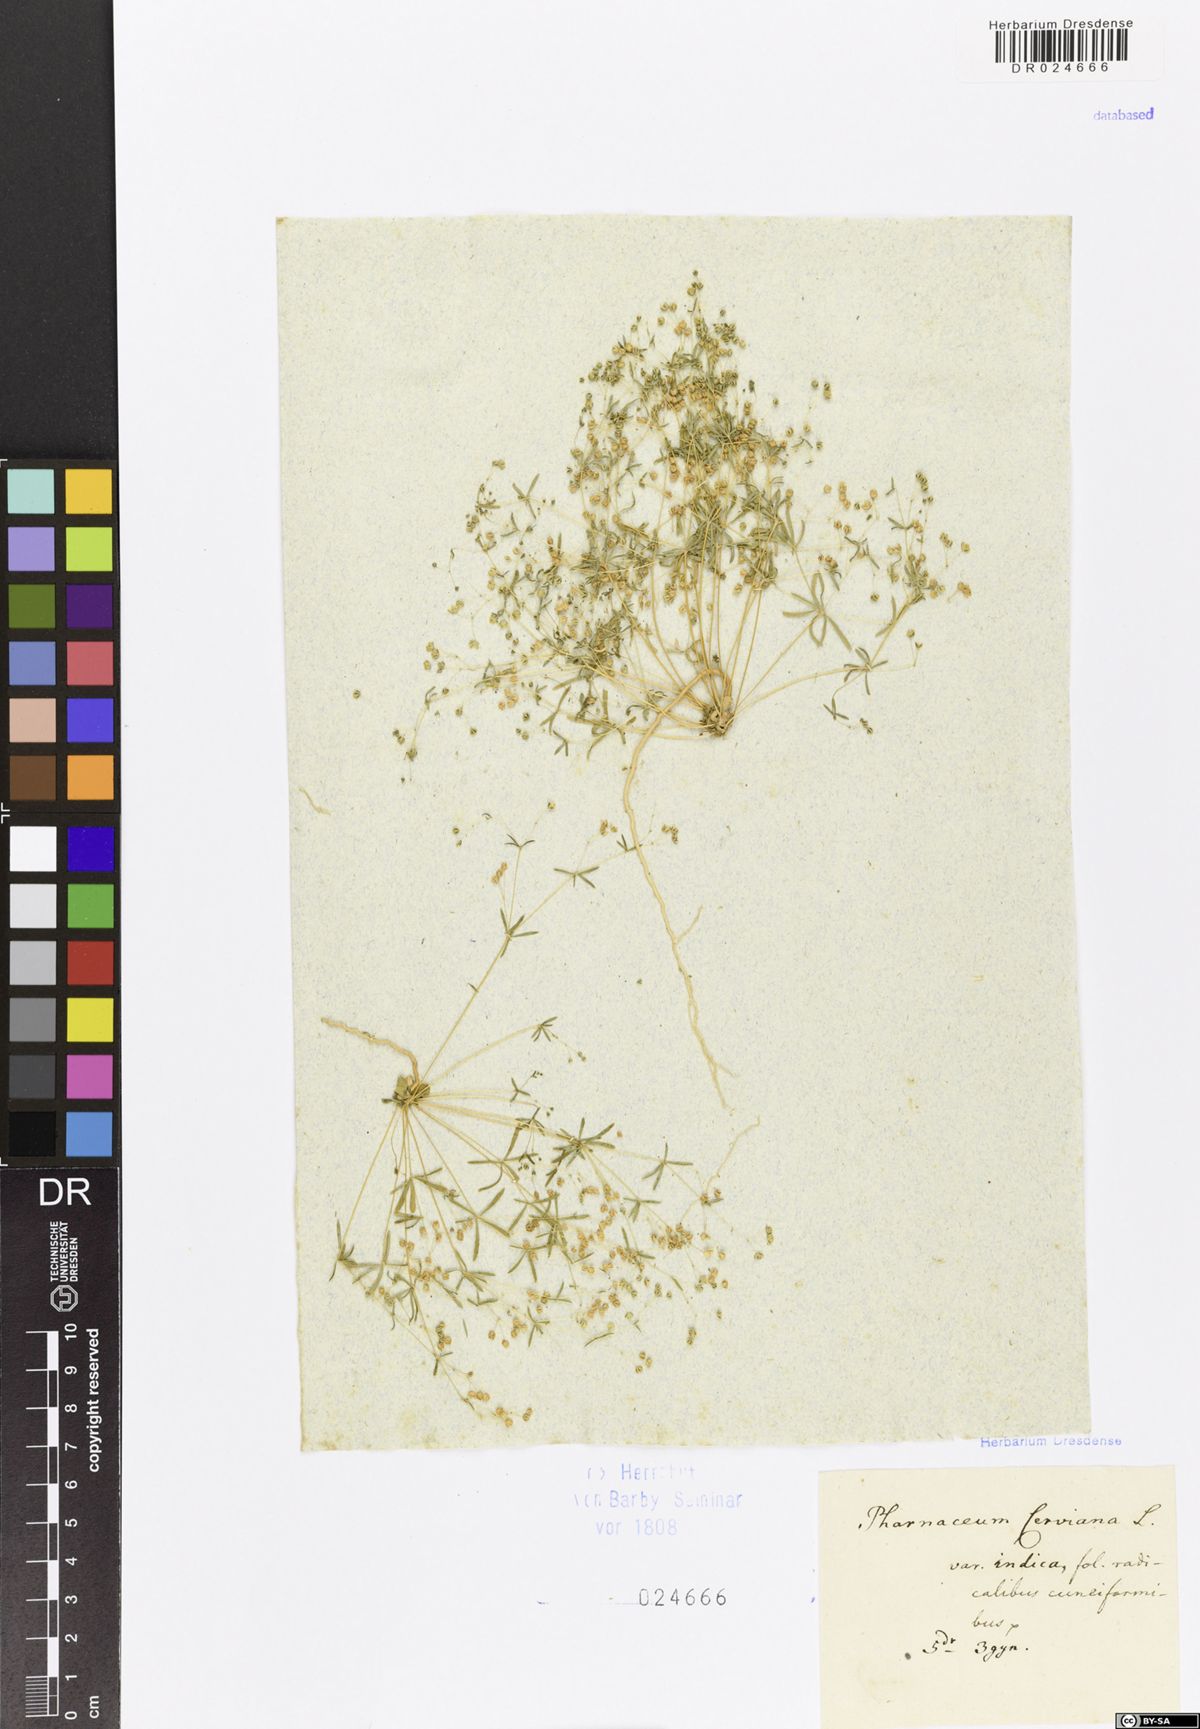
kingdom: Plantae
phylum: Tracheophyta
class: Magnoliopsida
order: Caryophyllales
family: Molluginaceae
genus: Hypertelis
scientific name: Hypertelis cerviana
